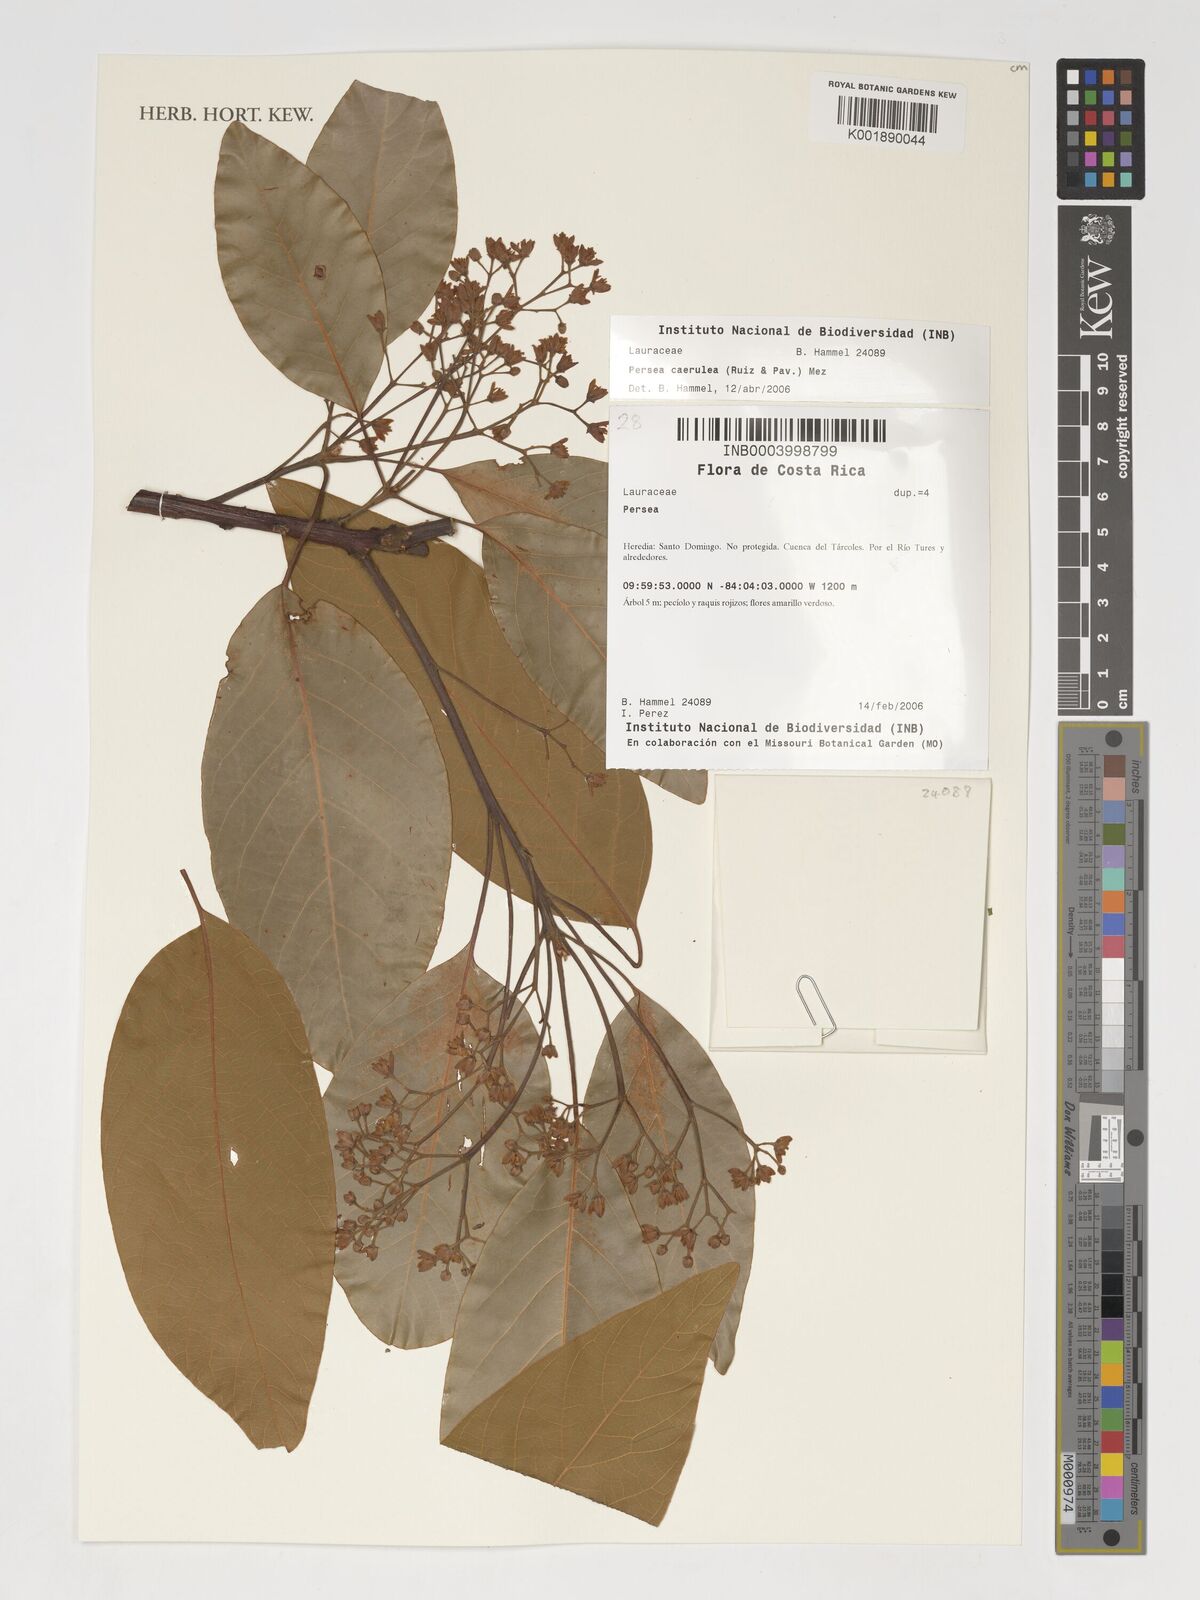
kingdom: Plantae
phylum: Tracheophyta
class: Magnoliopsida
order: Laurales
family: Lauraceae
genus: Persea
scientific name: Persea caerulea
